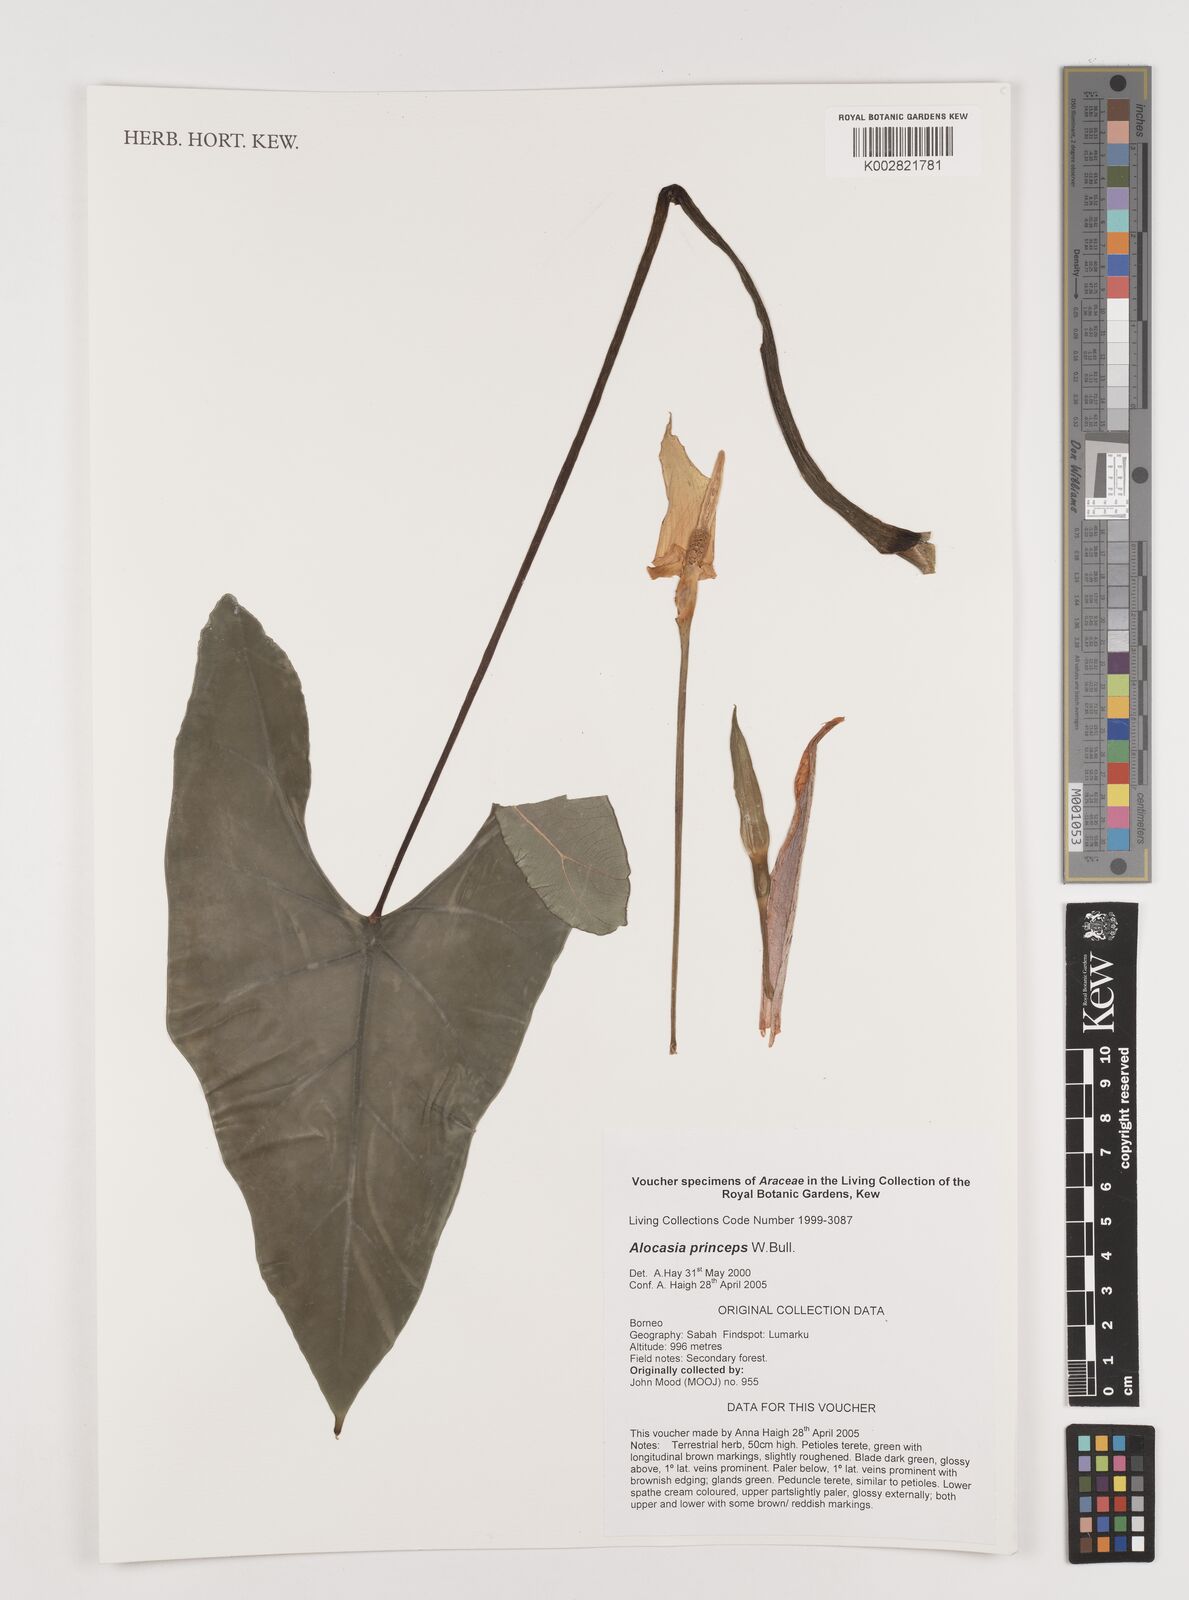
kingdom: Plantae
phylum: Tracheophyta
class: Liliopsida
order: Alismatales
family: Araceae
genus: Alocasia
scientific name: Alocasia
